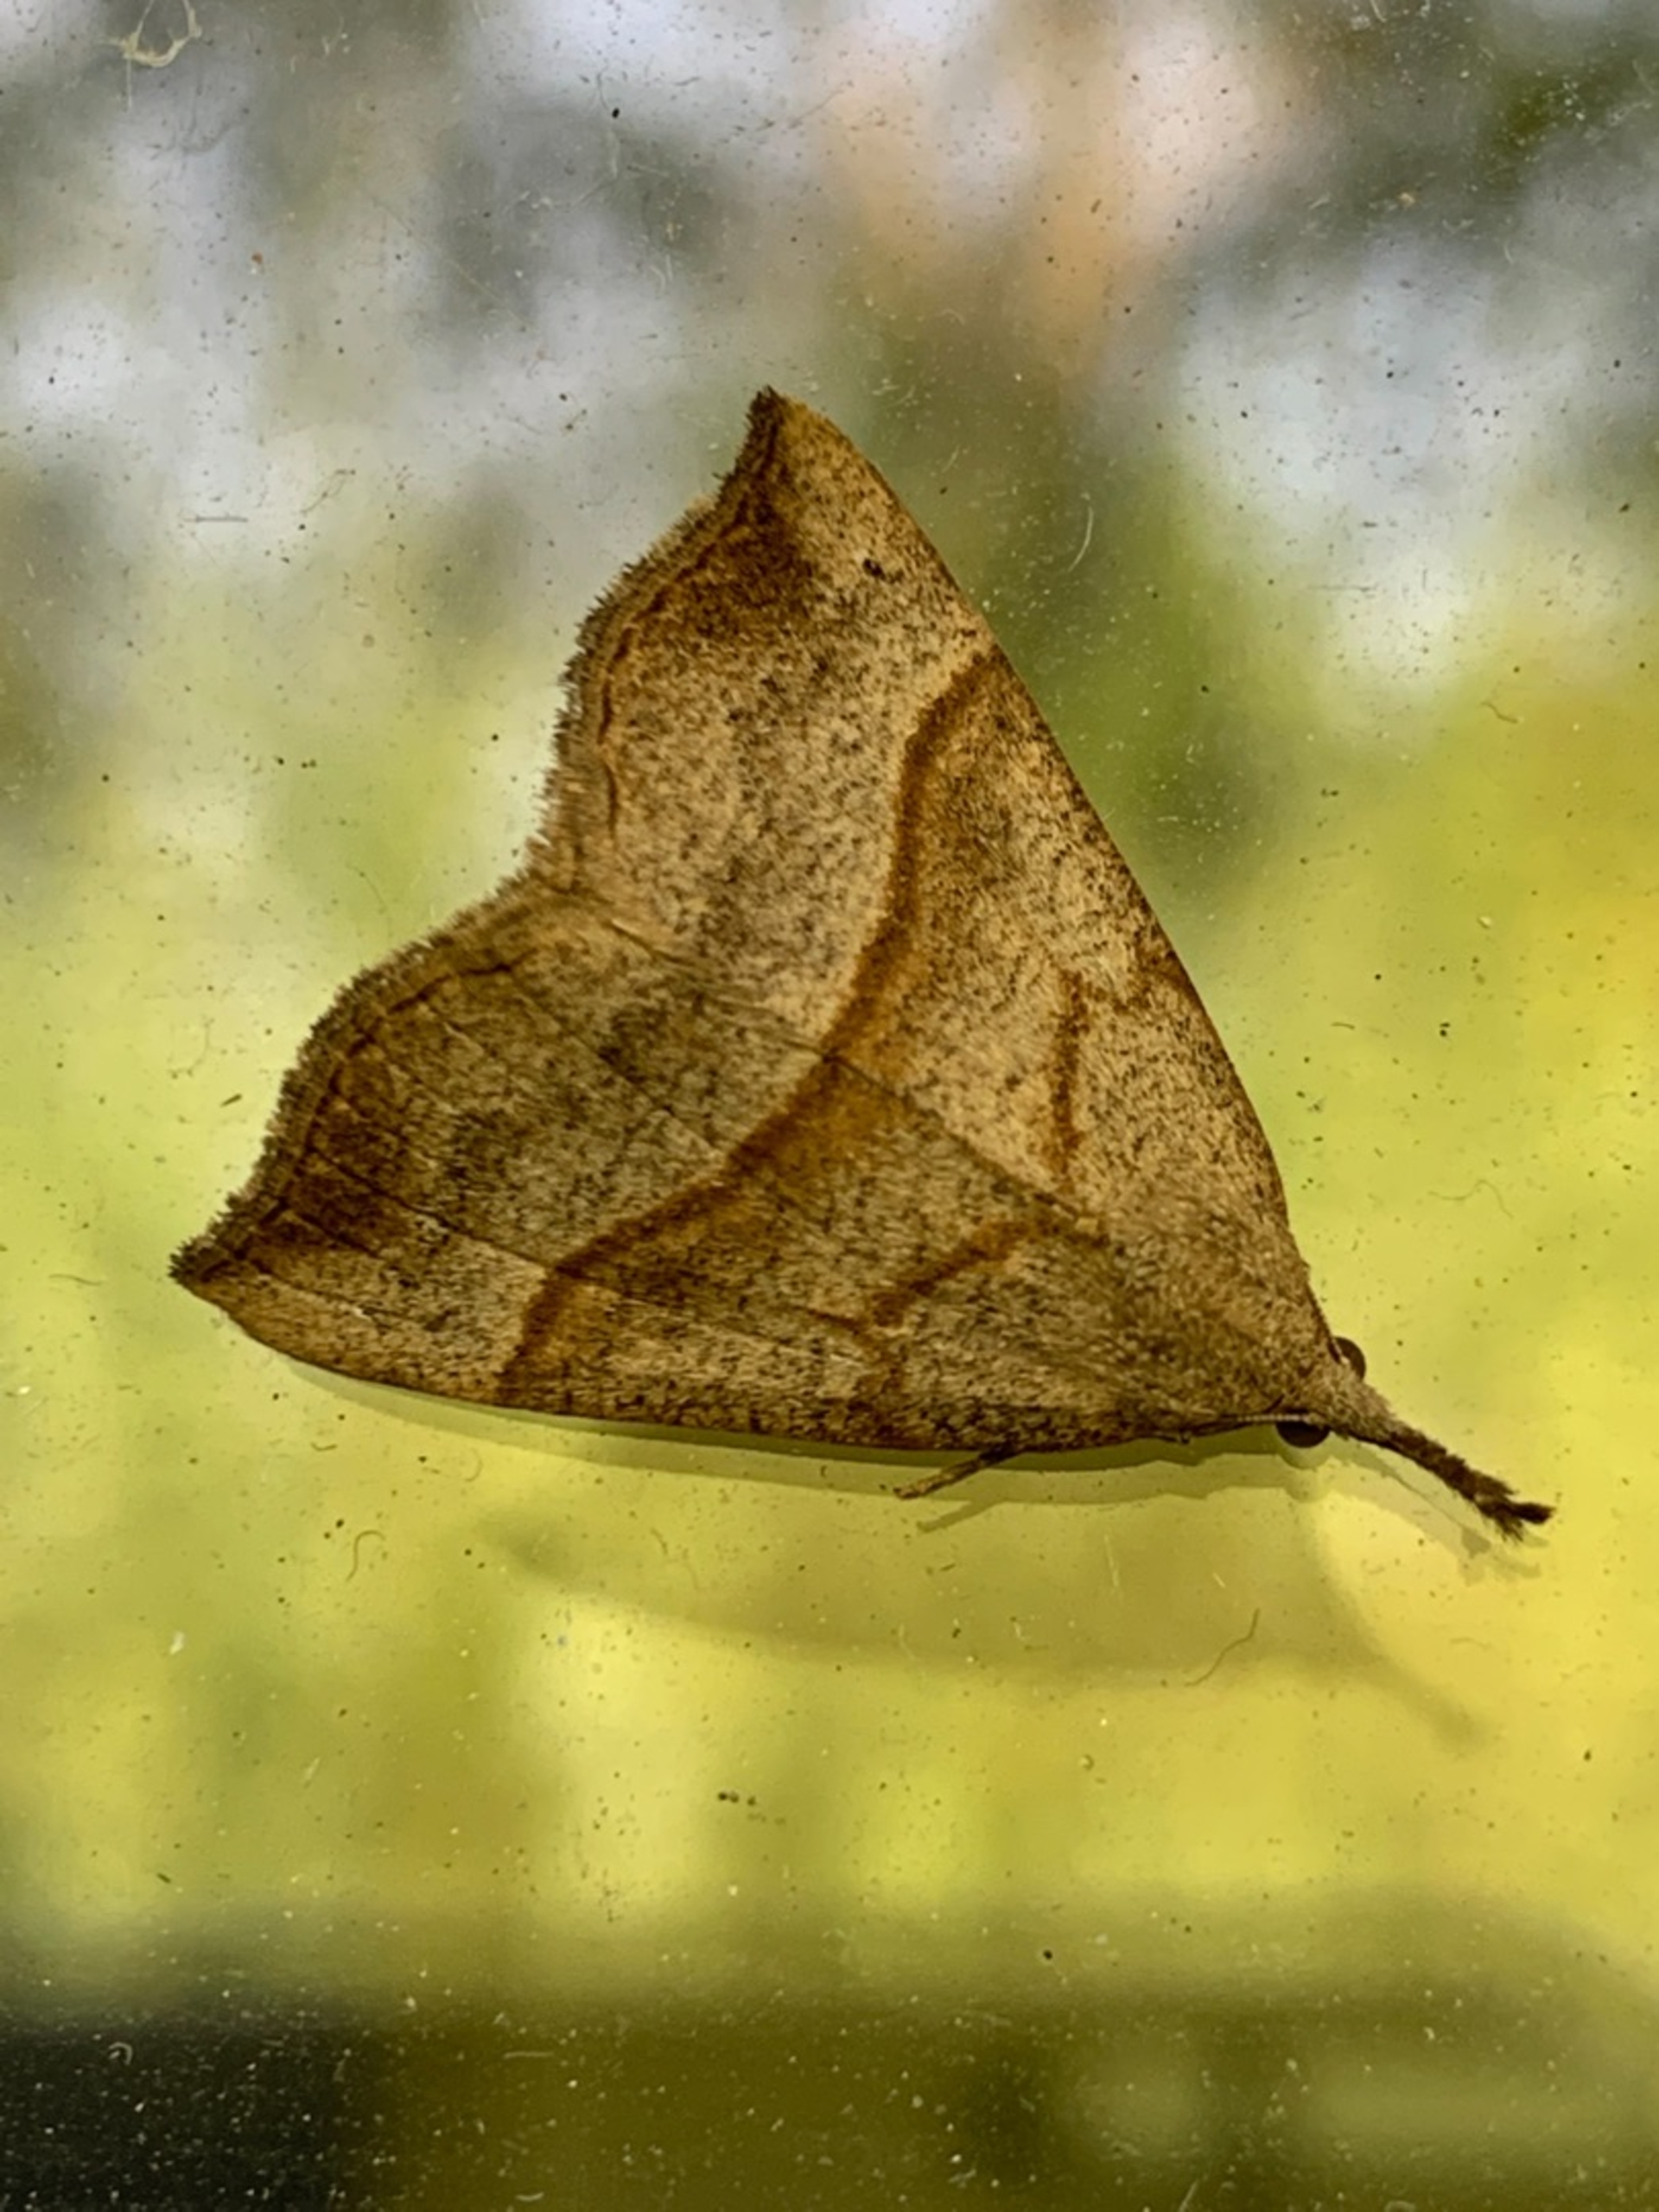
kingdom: Animalia
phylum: Arthropoda
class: Insecta
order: Lepidoptera
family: Erebidae
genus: Hypena
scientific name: Hypena proboscidalis
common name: Snudeugle
